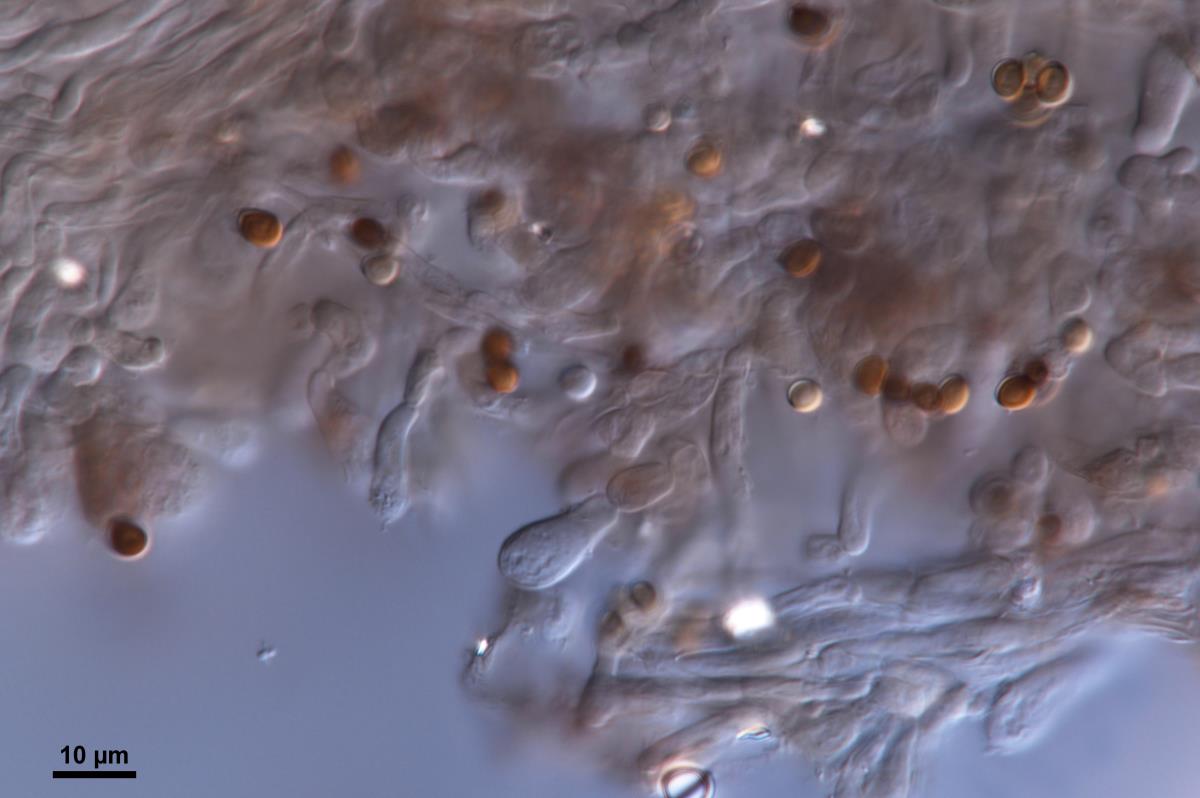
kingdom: Fungi
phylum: Basidiomycota
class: Agaricomycetes
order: Agaricales
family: Agaricaceae
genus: Agaricus
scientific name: Agaricus comtulus
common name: Ornamented mushroom
